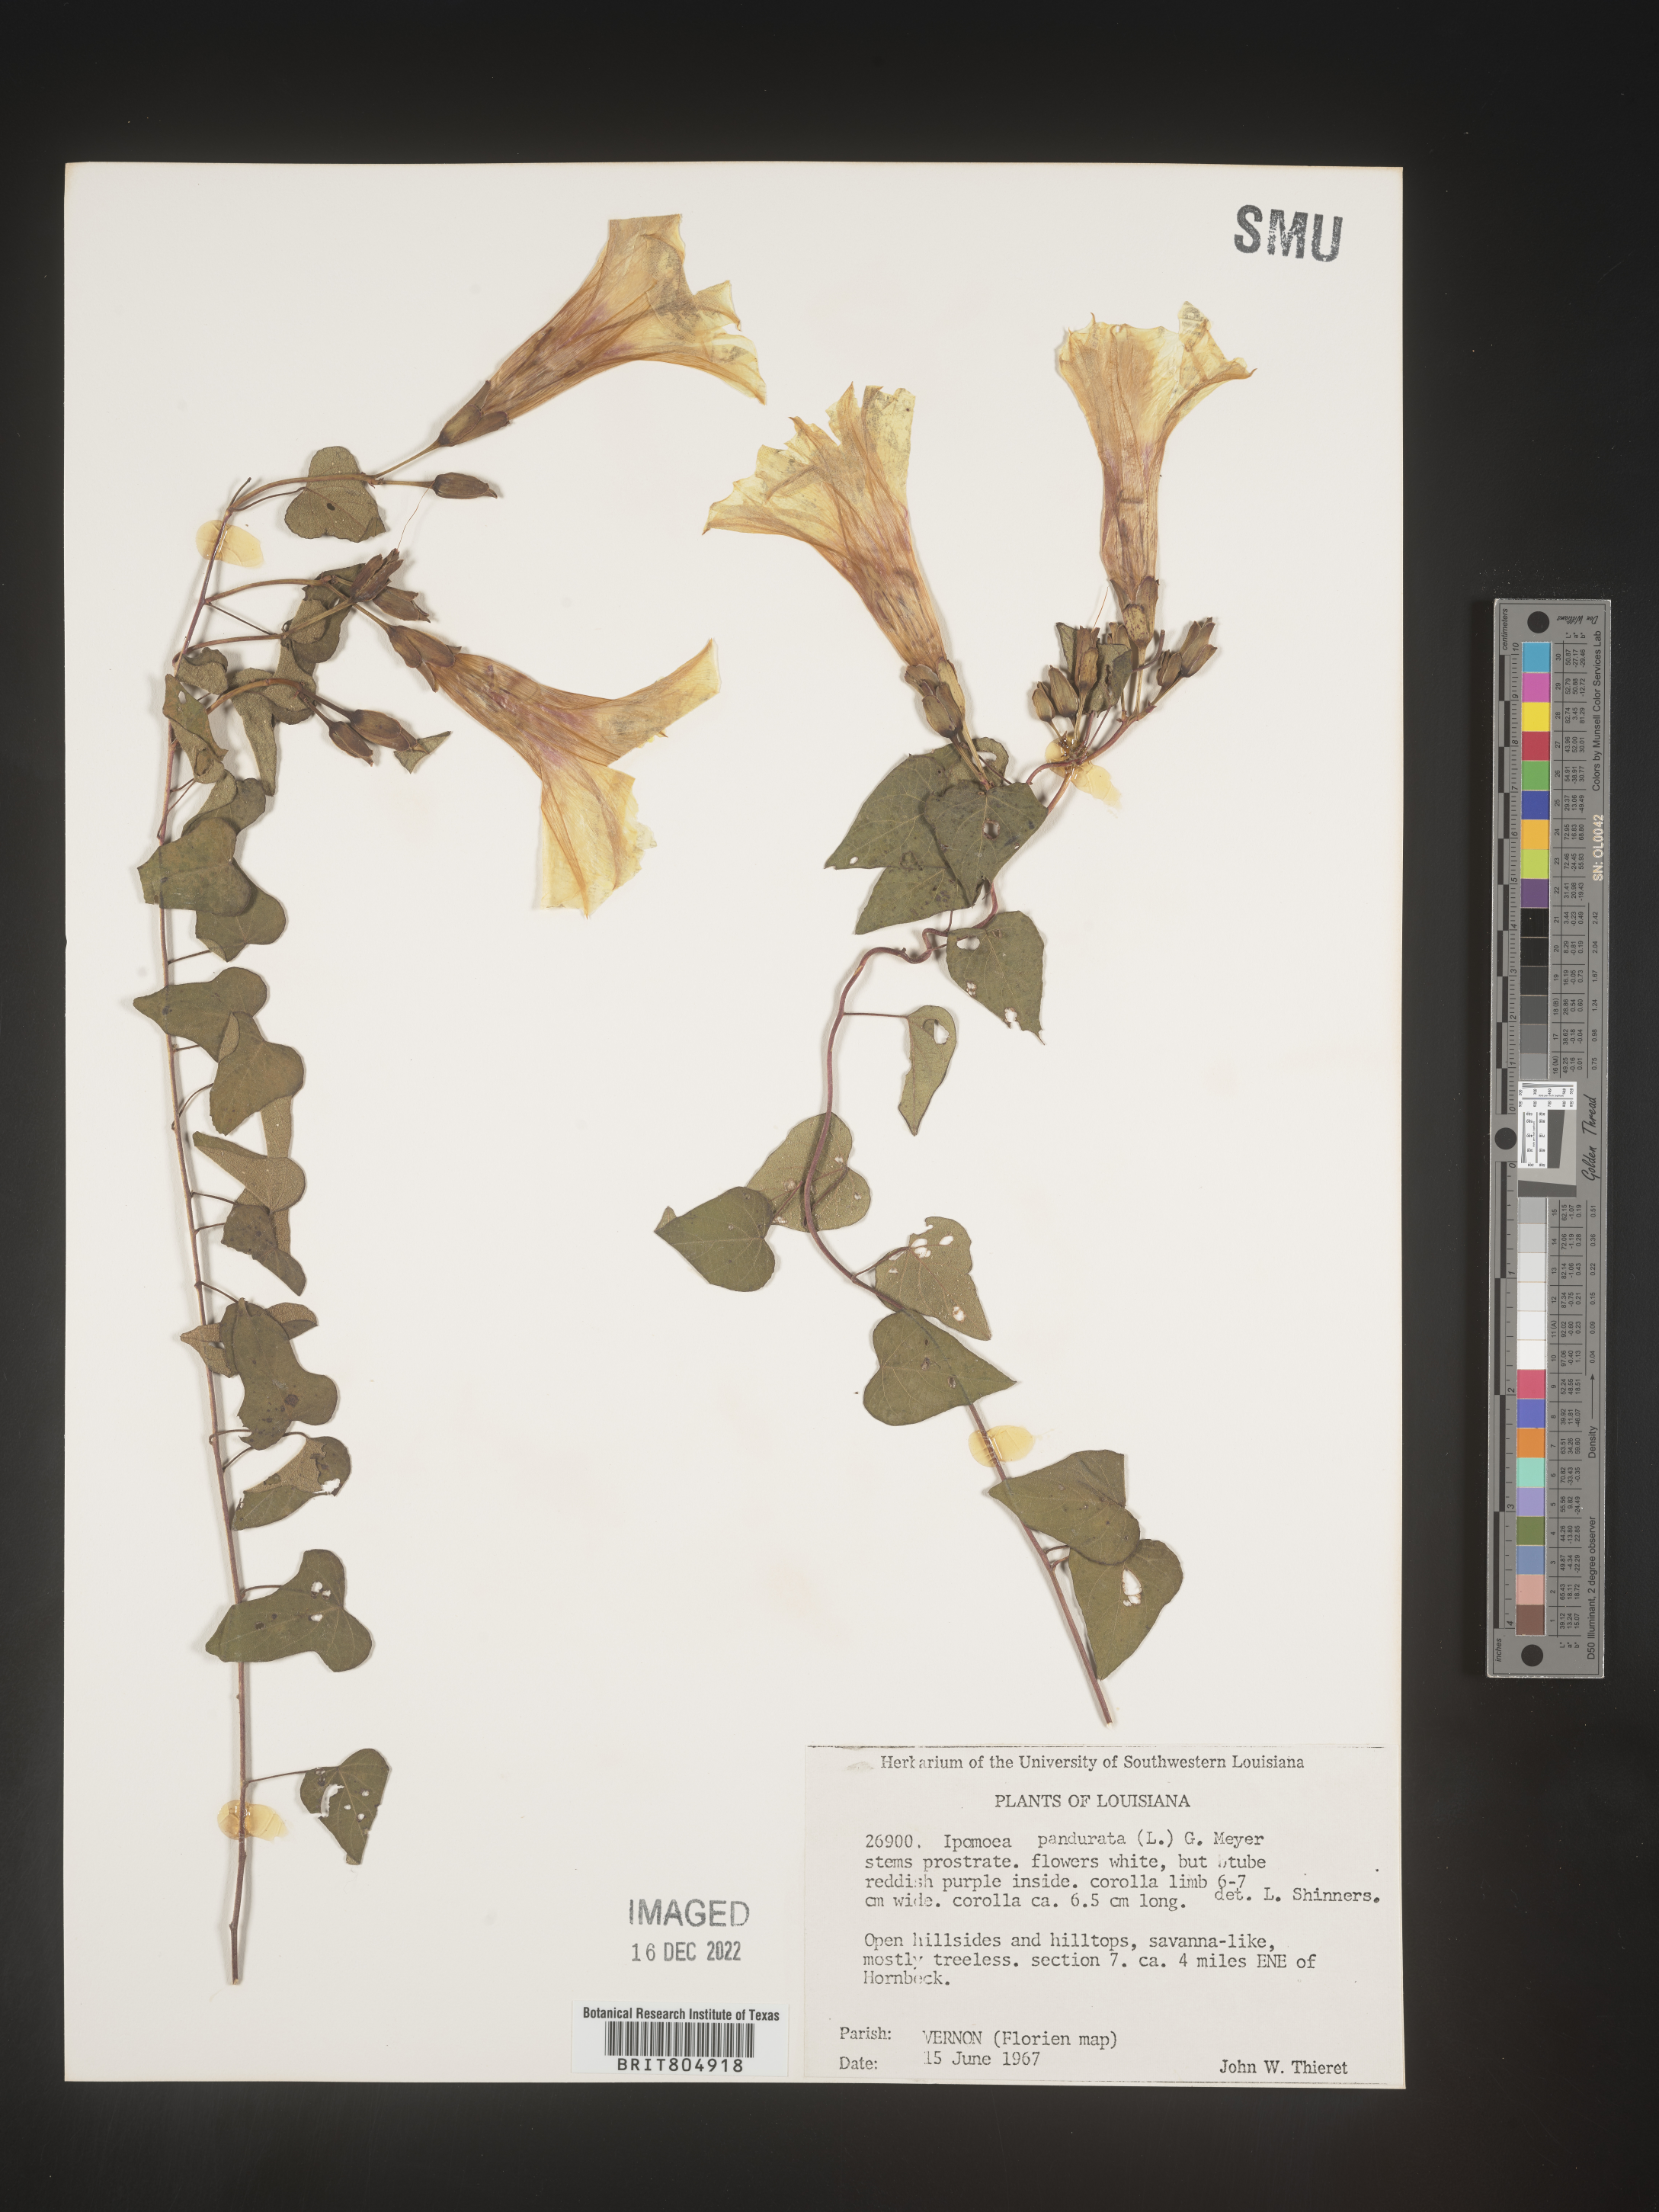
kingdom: Plantae
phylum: Tracheophyta
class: Magnoliopsida
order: Solanales
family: Convolvulaceae
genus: Ipomoea
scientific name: Ipomoea pandurata
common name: Man-of-the-earth
